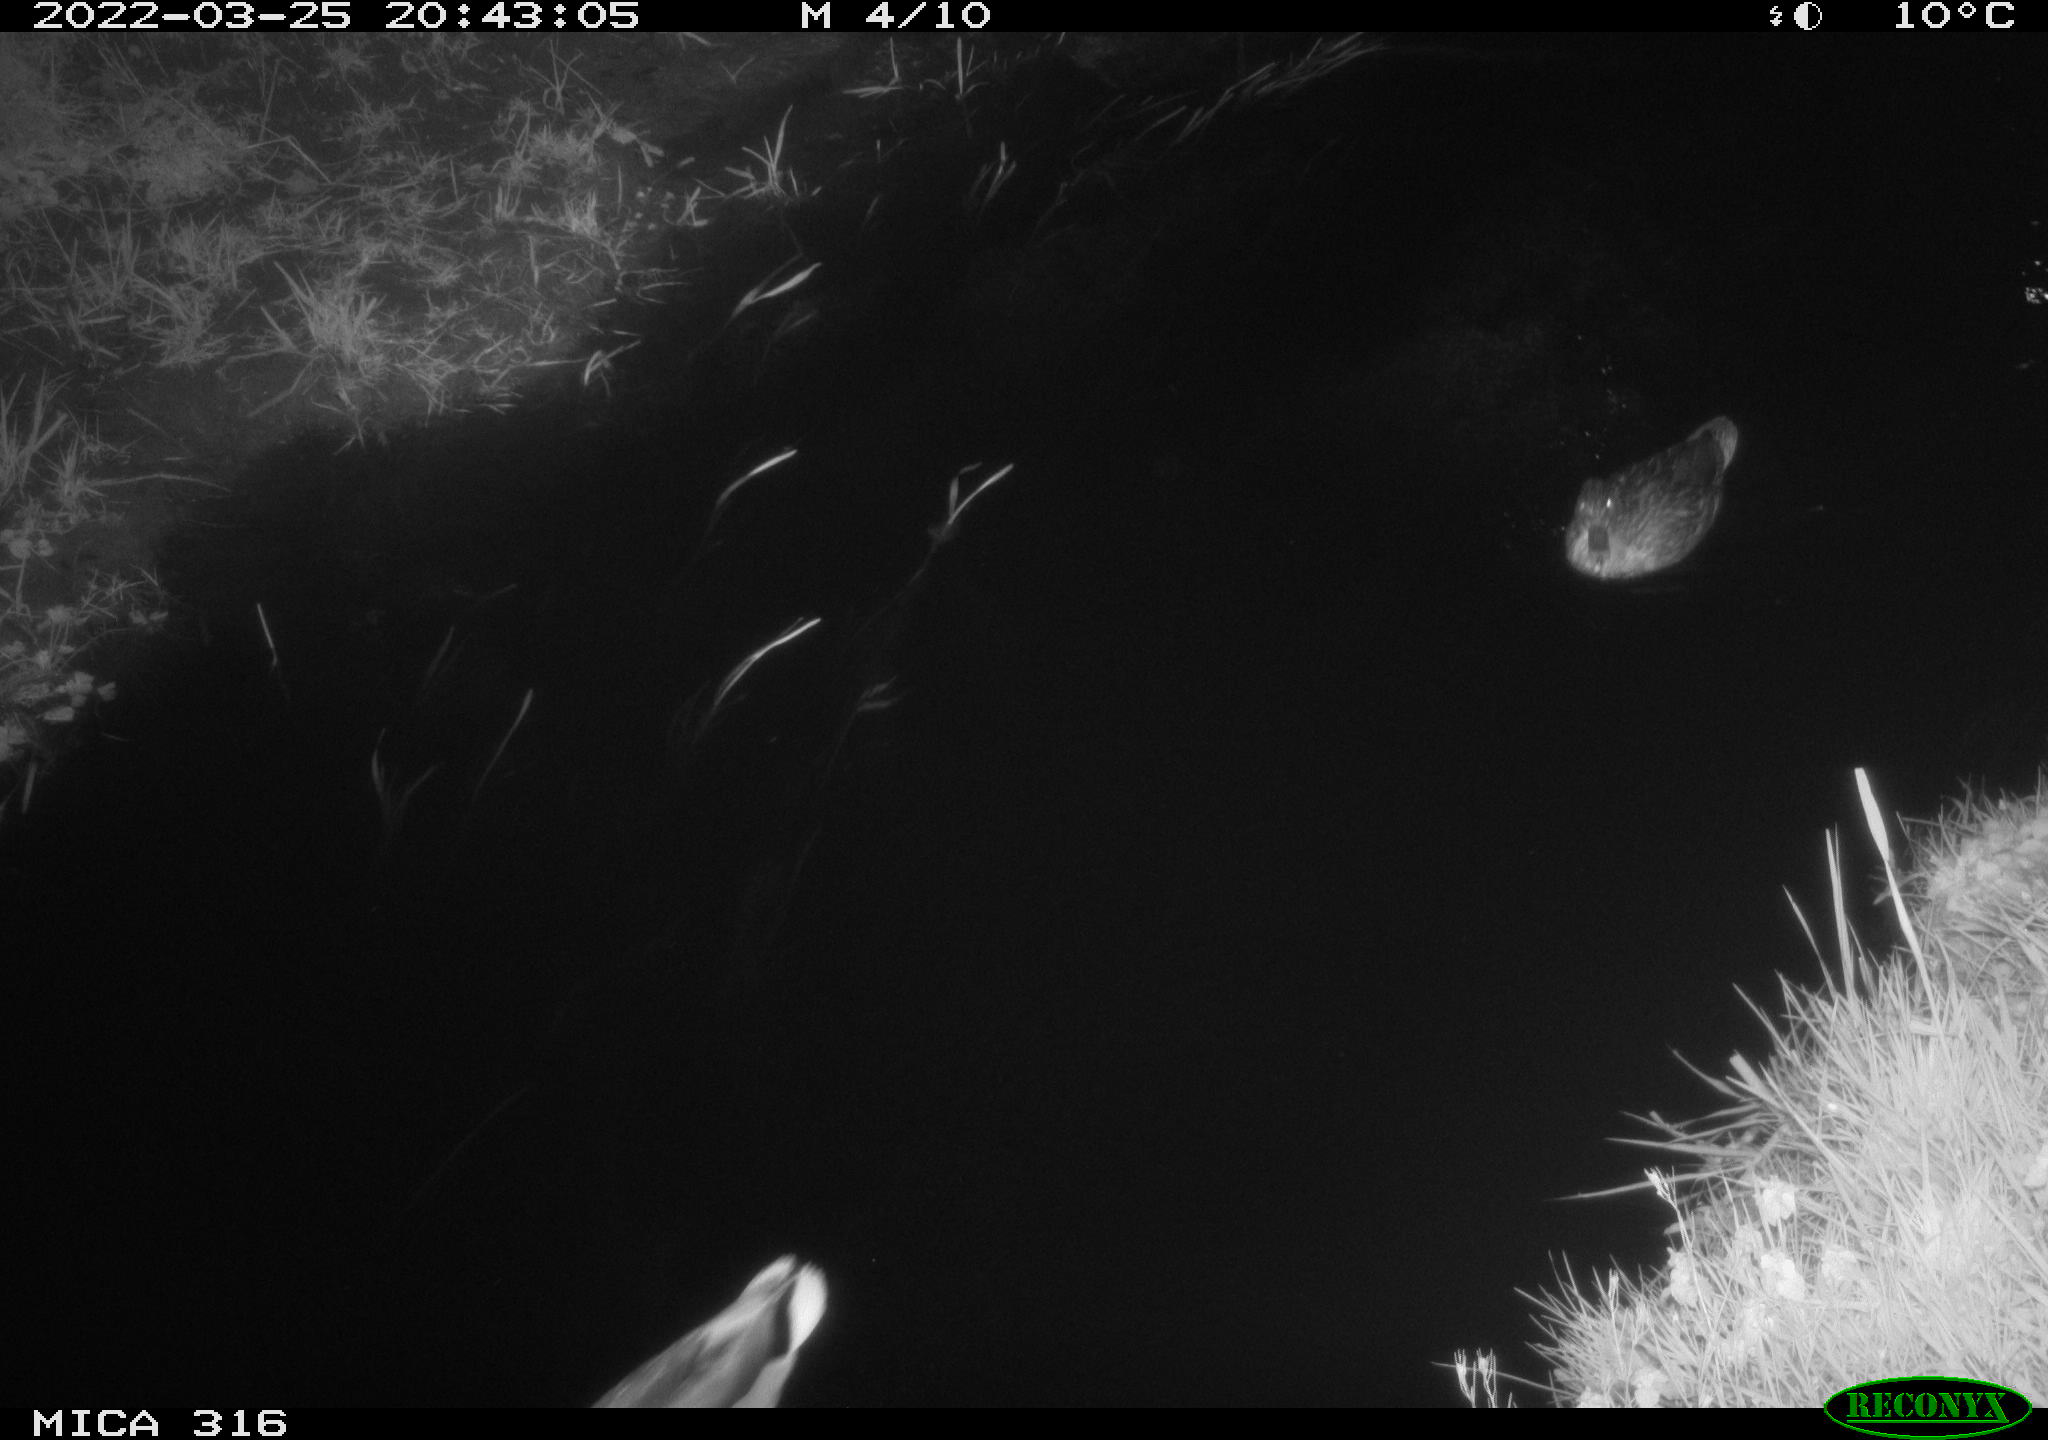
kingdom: Animalia
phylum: Chordata
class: Aves
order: Anseriformes
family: Anatidae
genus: Anas
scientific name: Anas platyrhynchos
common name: Mallard
